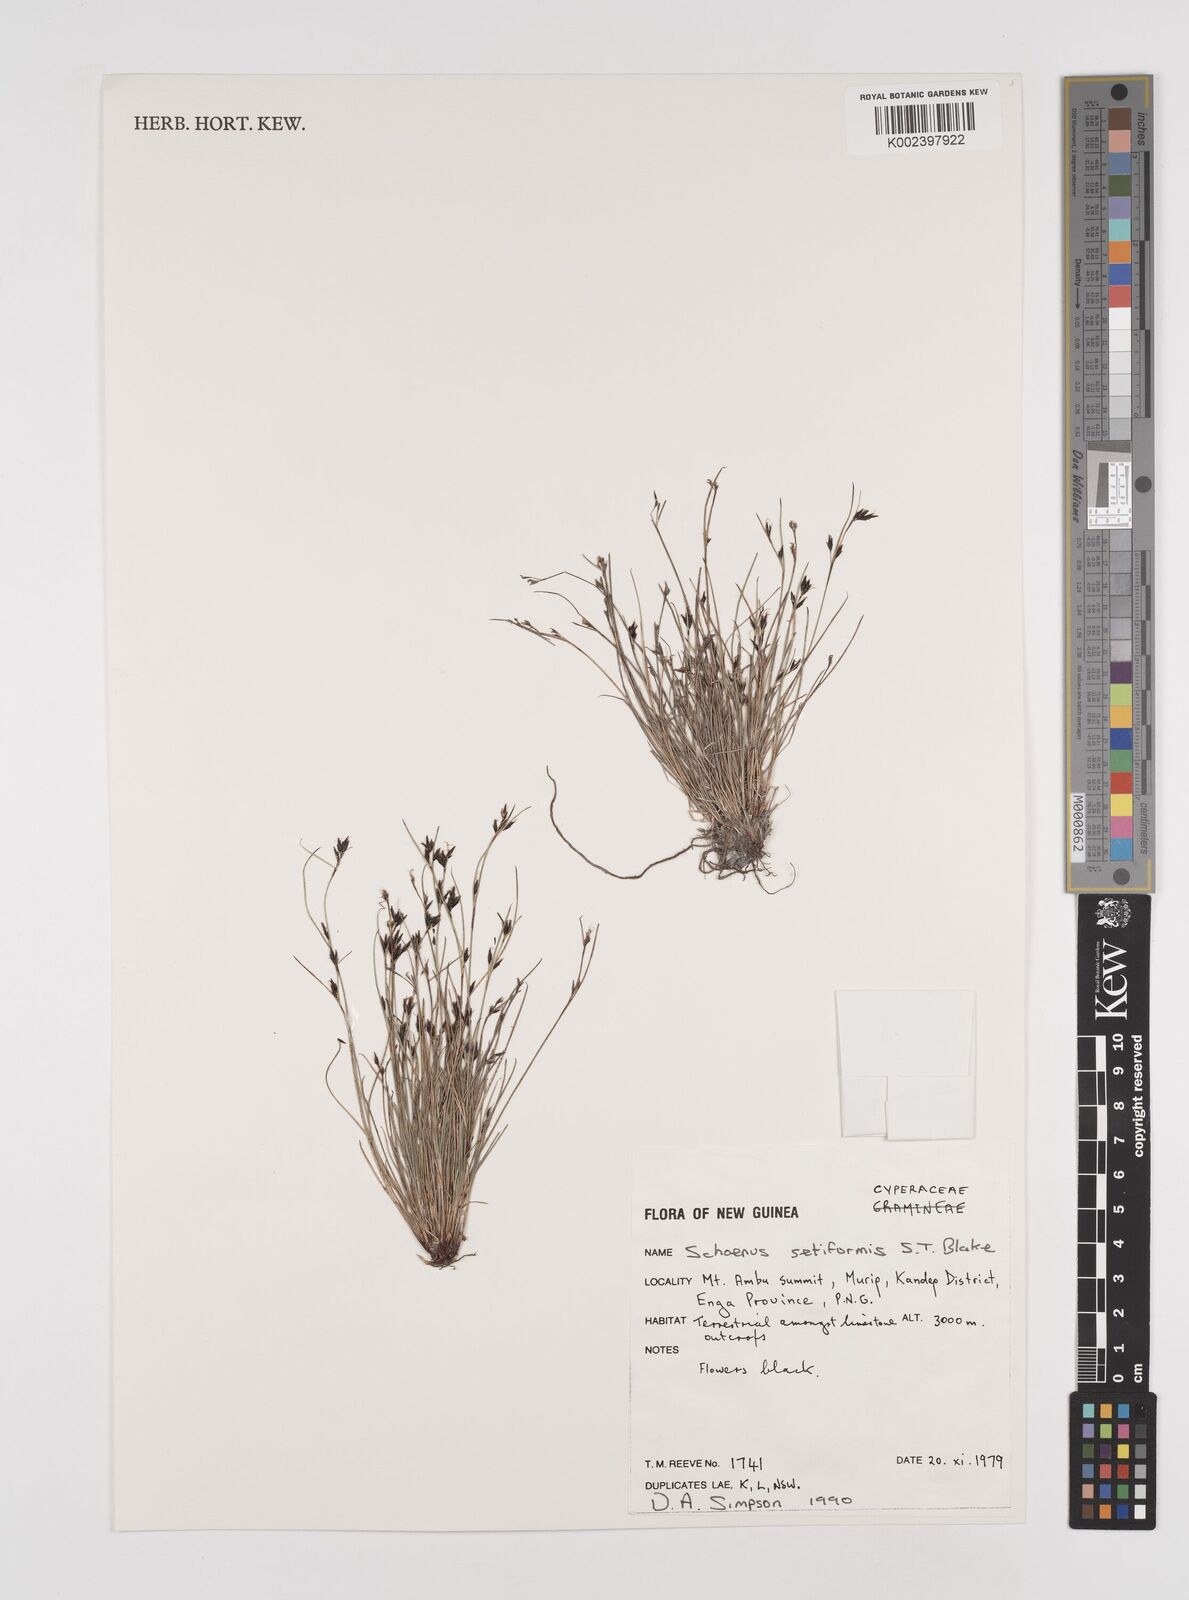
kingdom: Plantae
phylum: Tracheophyta
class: Liliopsida
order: Poales
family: Cyperaceae
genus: Schoenus
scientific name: Schoenus setiformis
